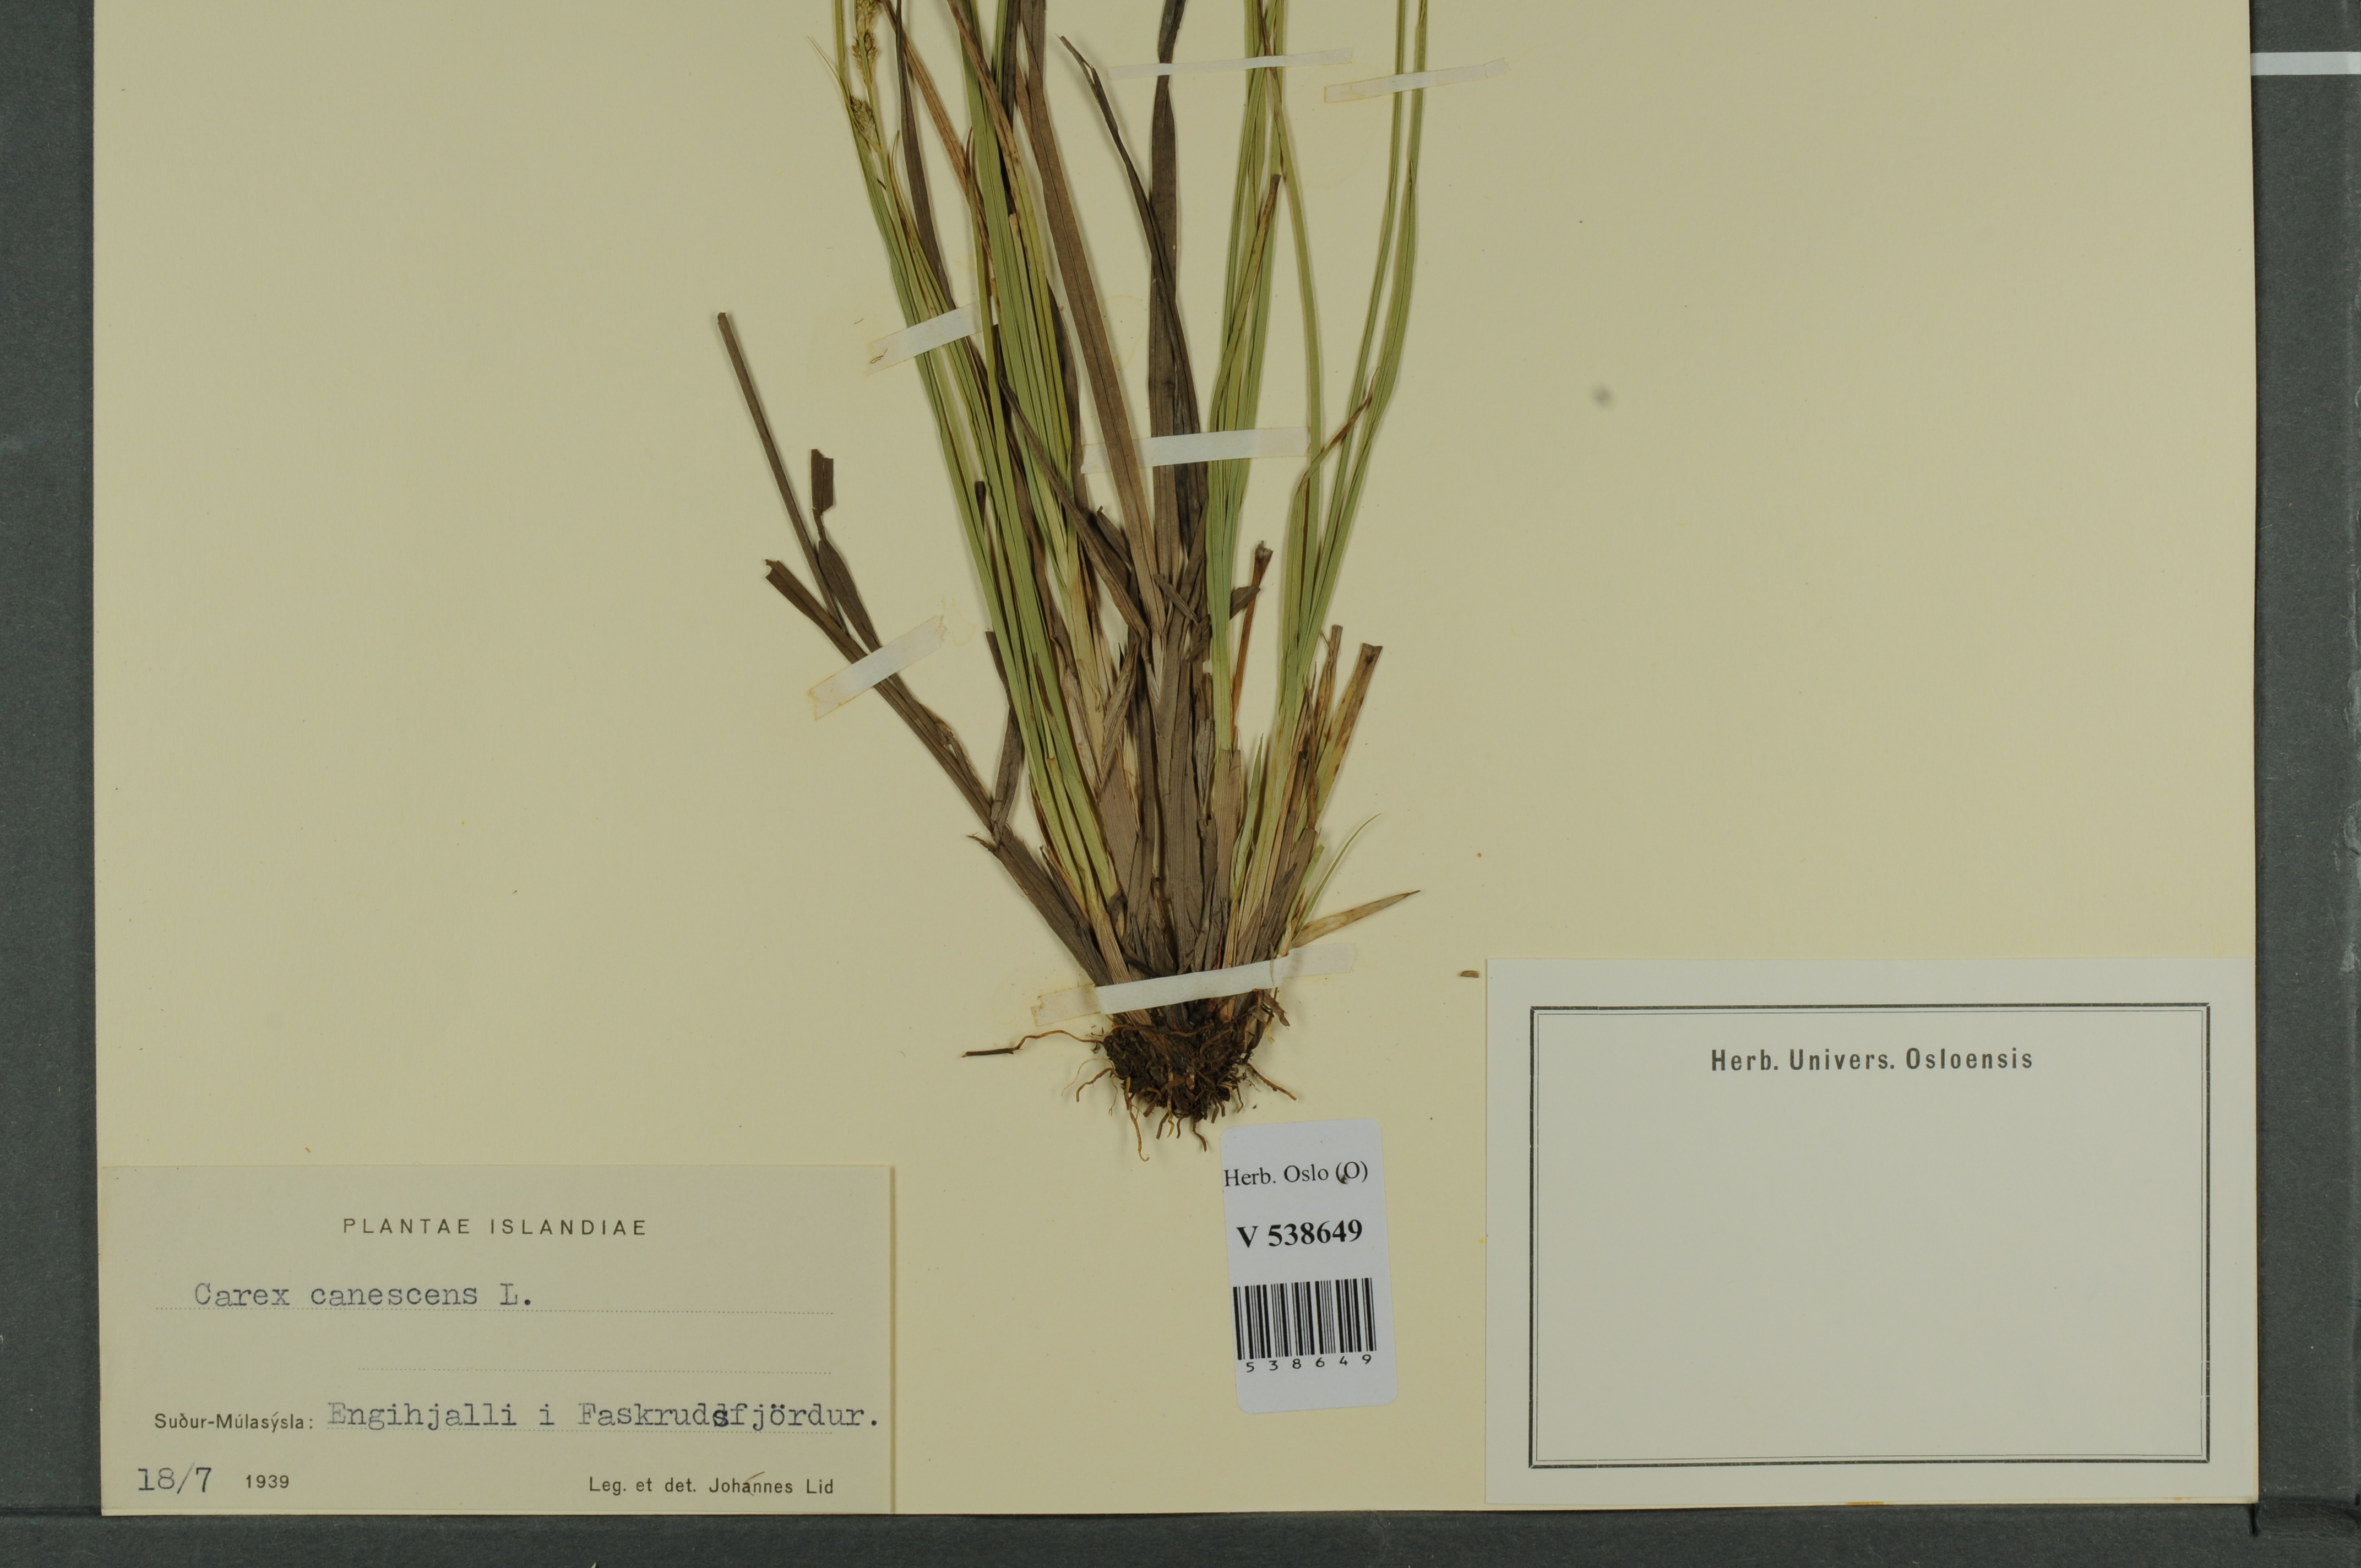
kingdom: Plantae
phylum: Tracheophyta
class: Liliopsida
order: Poales
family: Cyperaceae
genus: Carex
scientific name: Carex canescens
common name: White sedge
